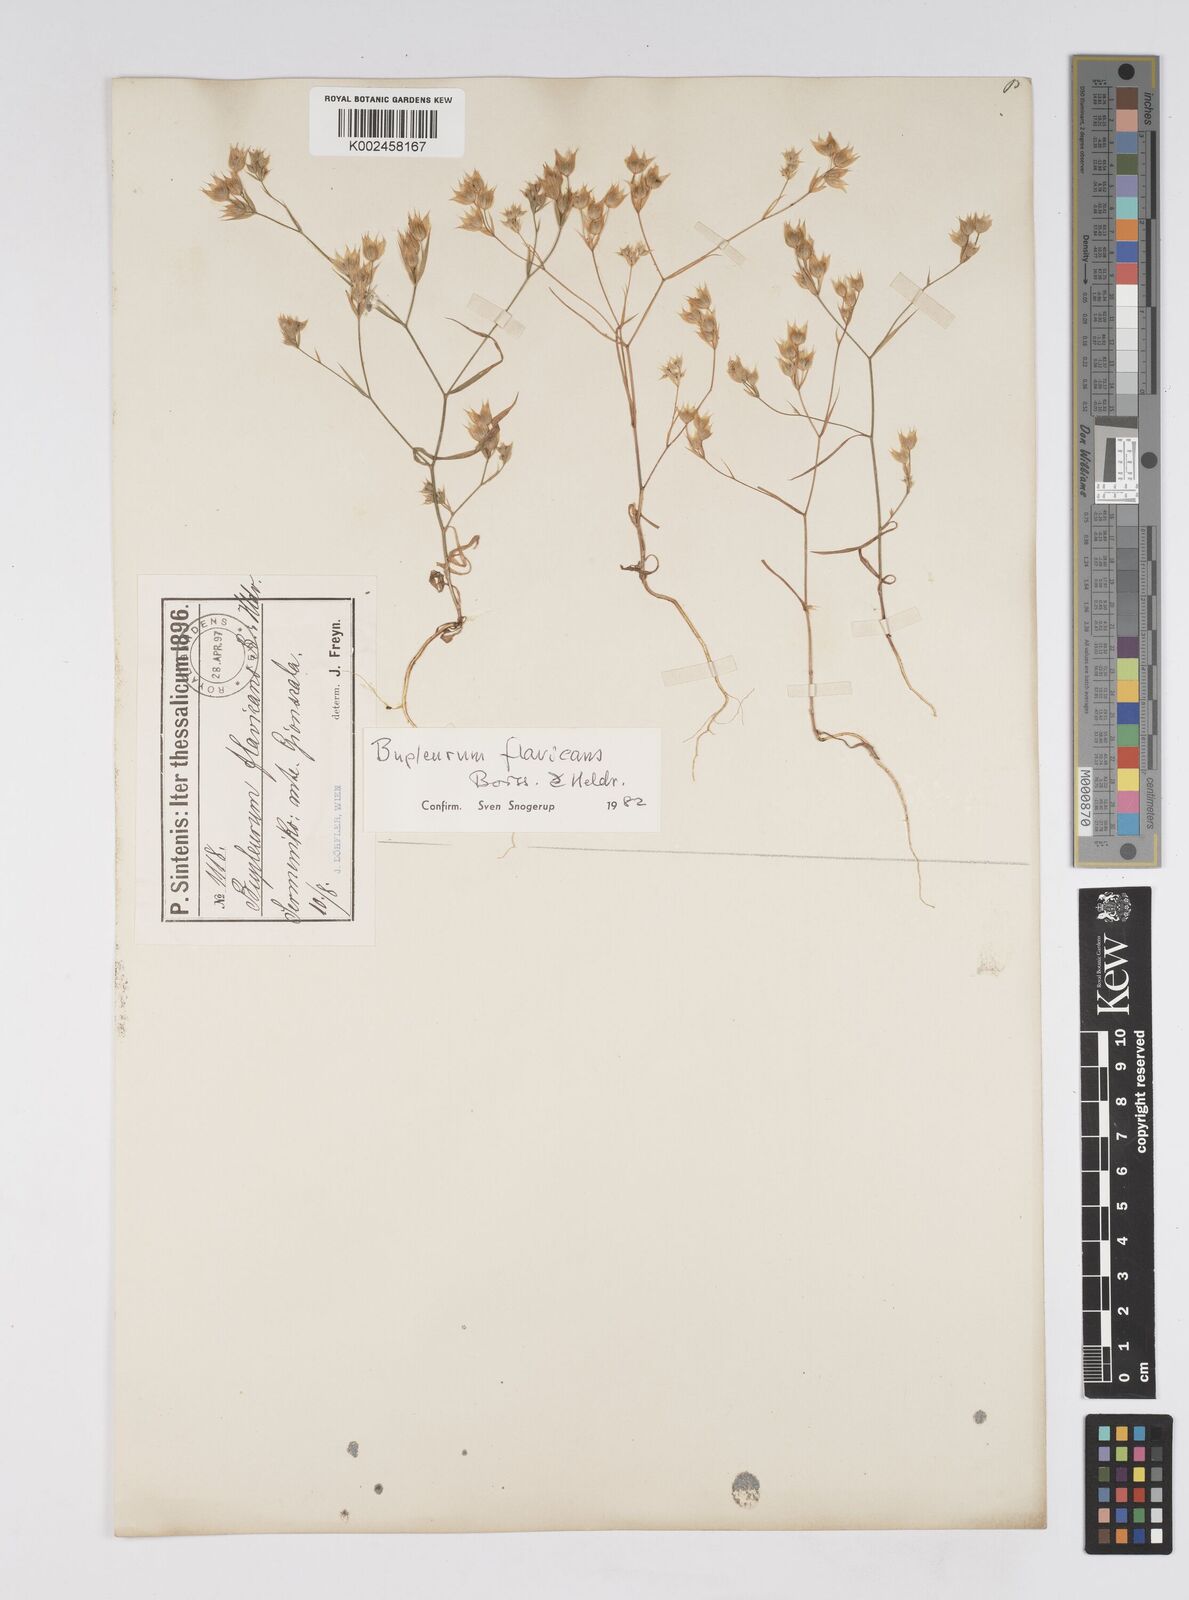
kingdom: Plantae
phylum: Tracheophyta
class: Magnoliopsida
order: Apiales
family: Apiaceae
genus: Bupleurum
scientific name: Bupleurum flavicans
